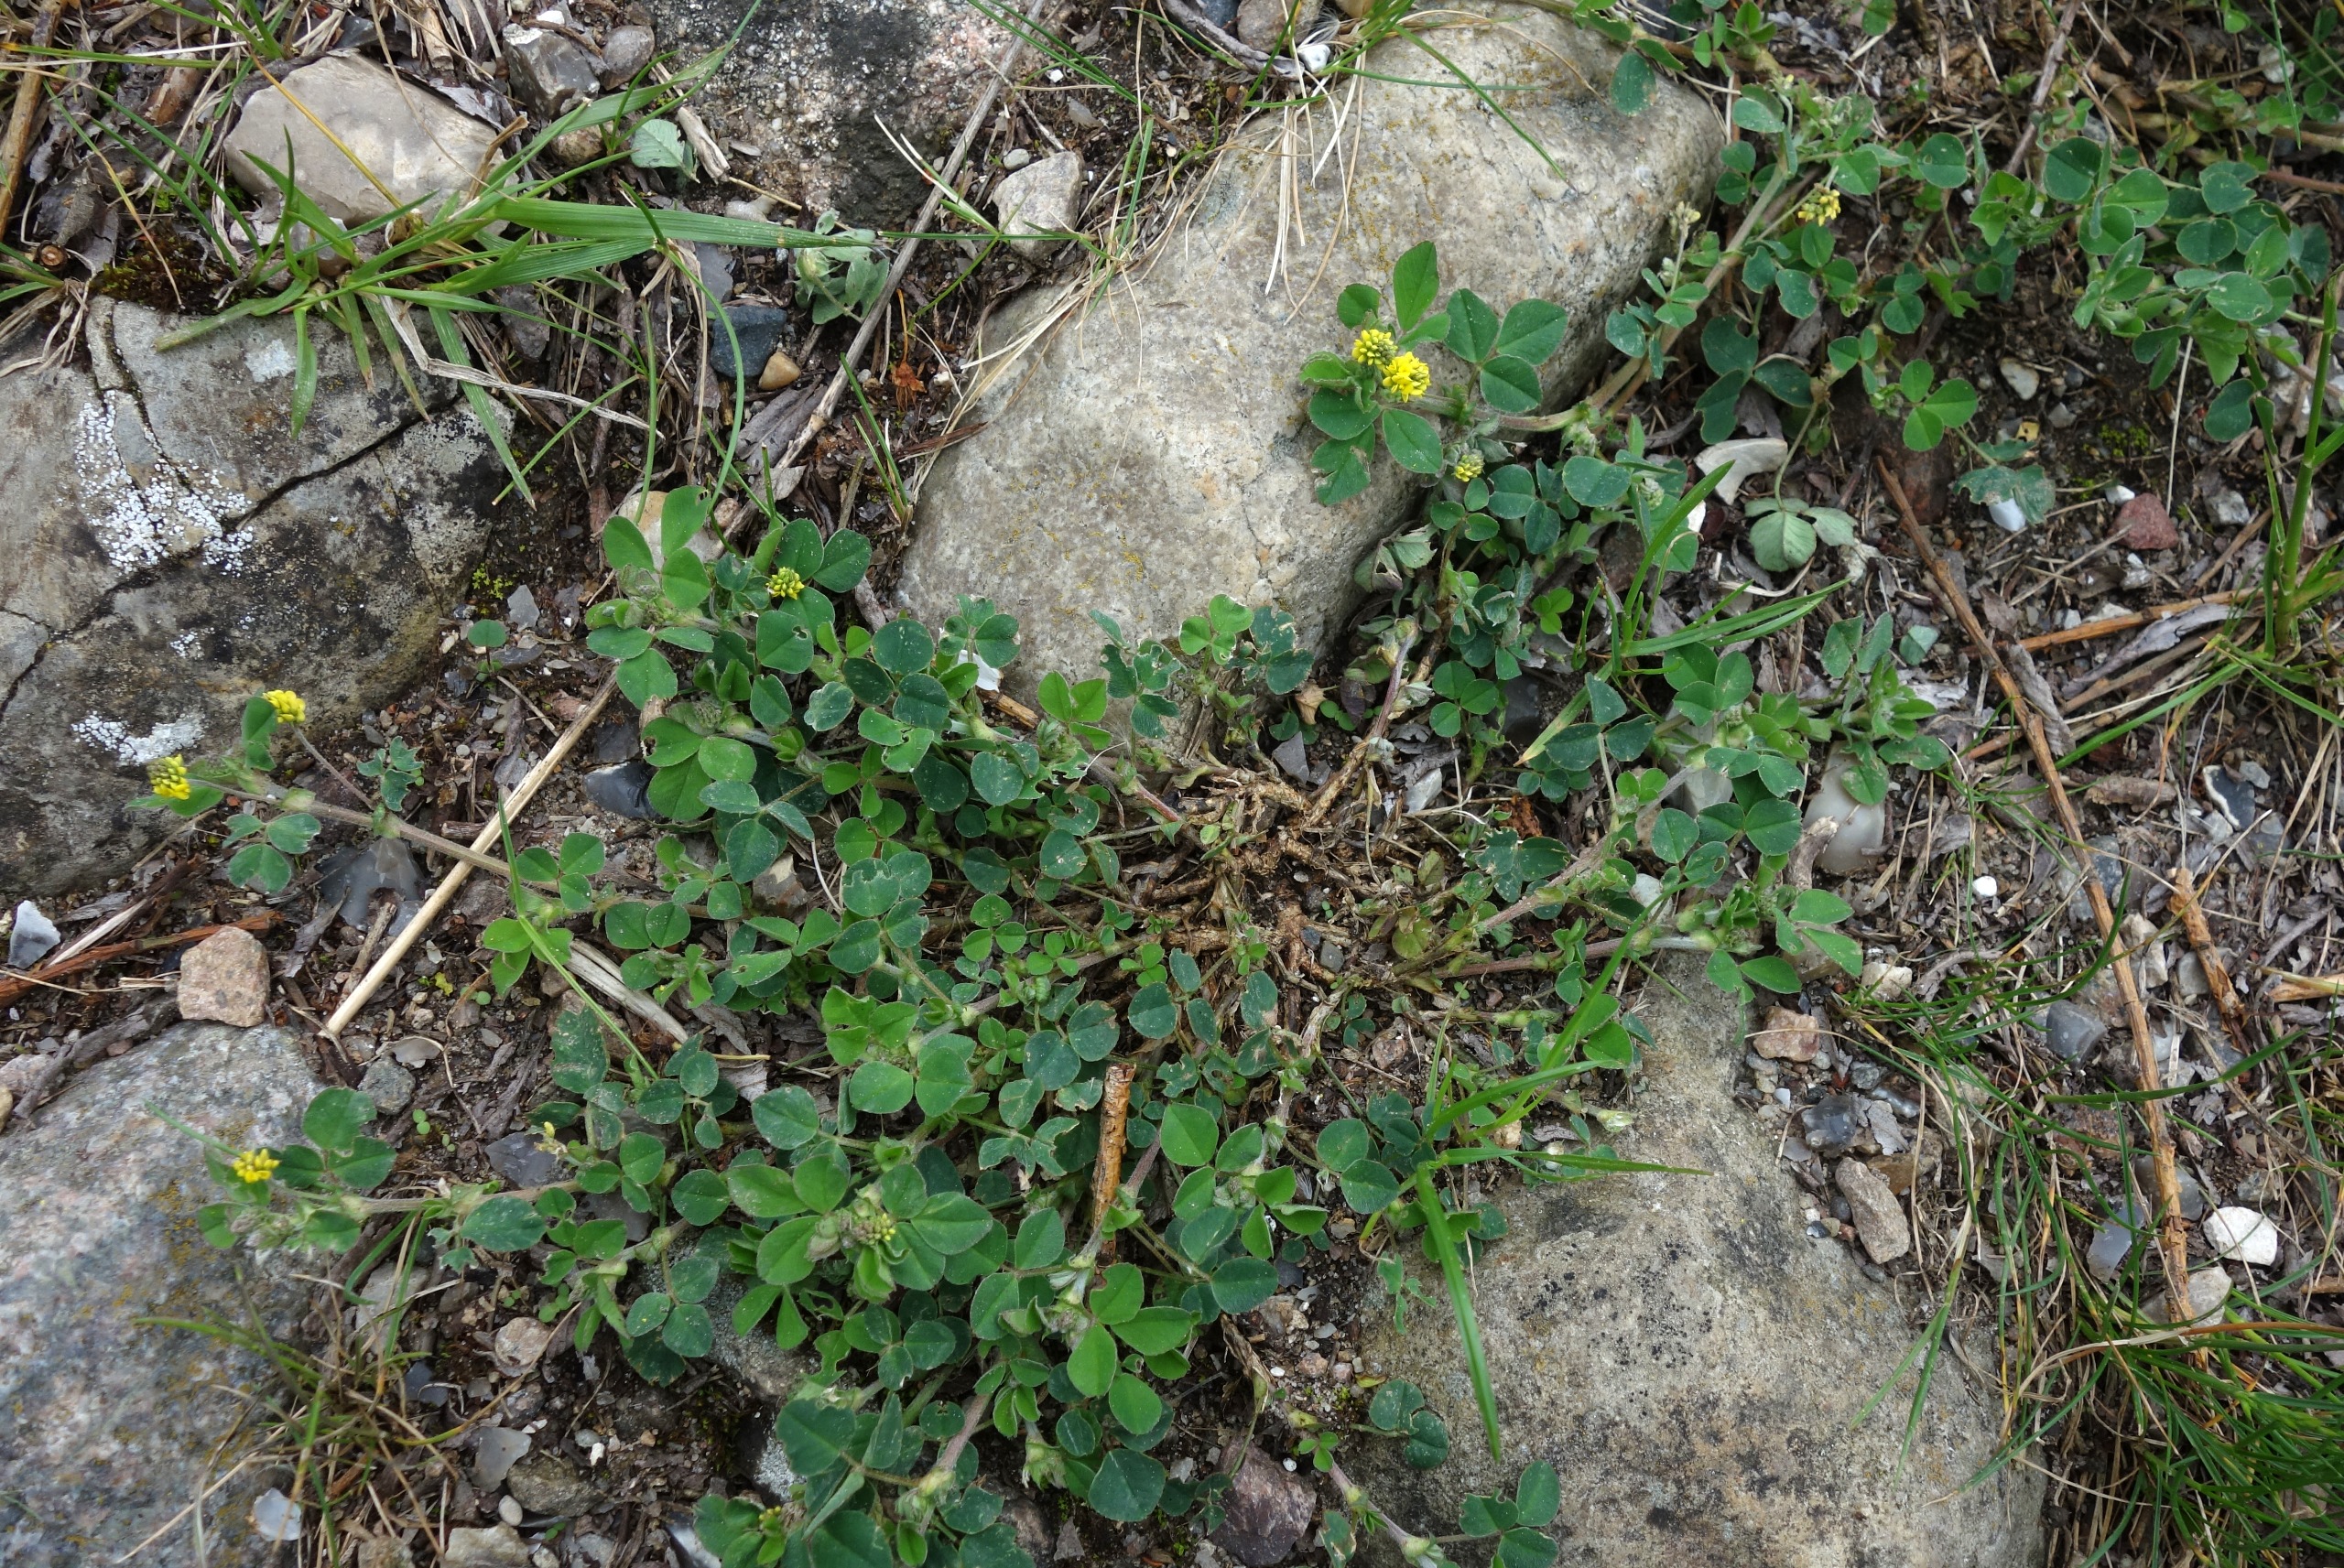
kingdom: Plantae
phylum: Tracheophyta
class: Magnoliopsida
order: Fabales
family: Fabaceae
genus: Medicago
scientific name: Medicago lupulina
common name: Humle-sneglebælg
